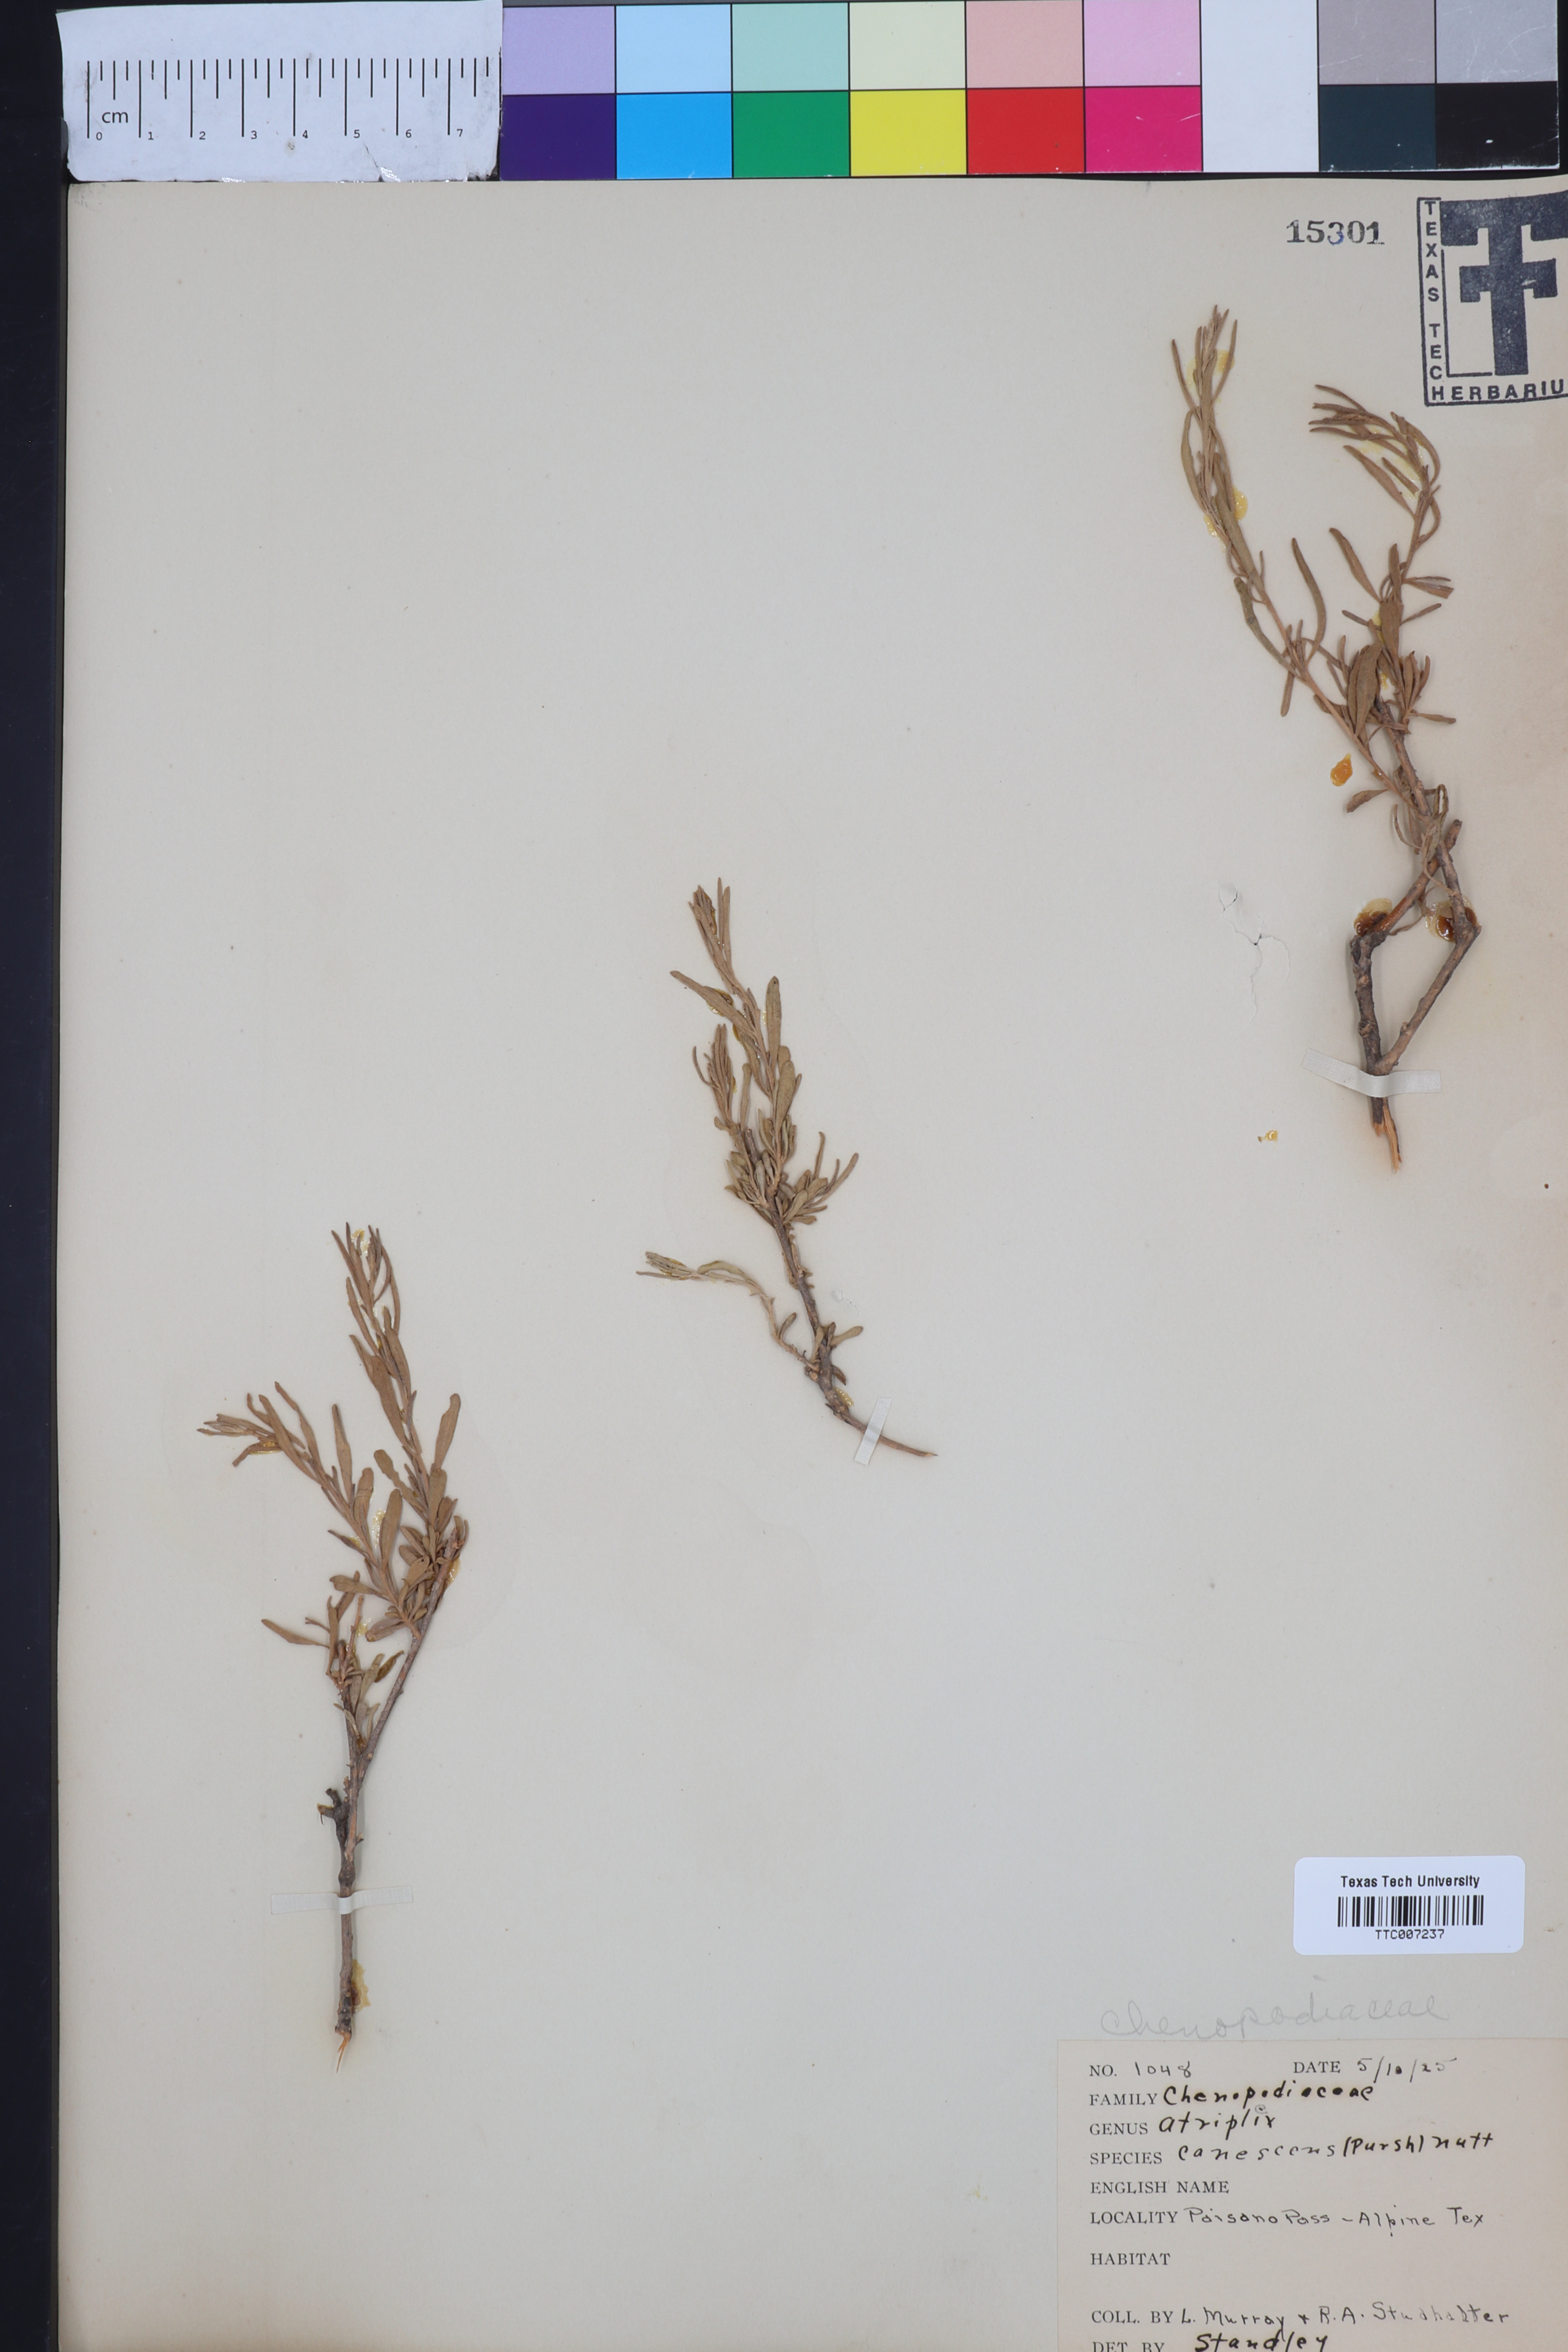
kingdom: Plantae
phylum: Tracheophyta
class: Magnoliopsida
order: Caryophyllales
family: Amaranthaceae
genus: Atriplex
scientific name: Atriplex canescens
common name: Four-wing saltbush
